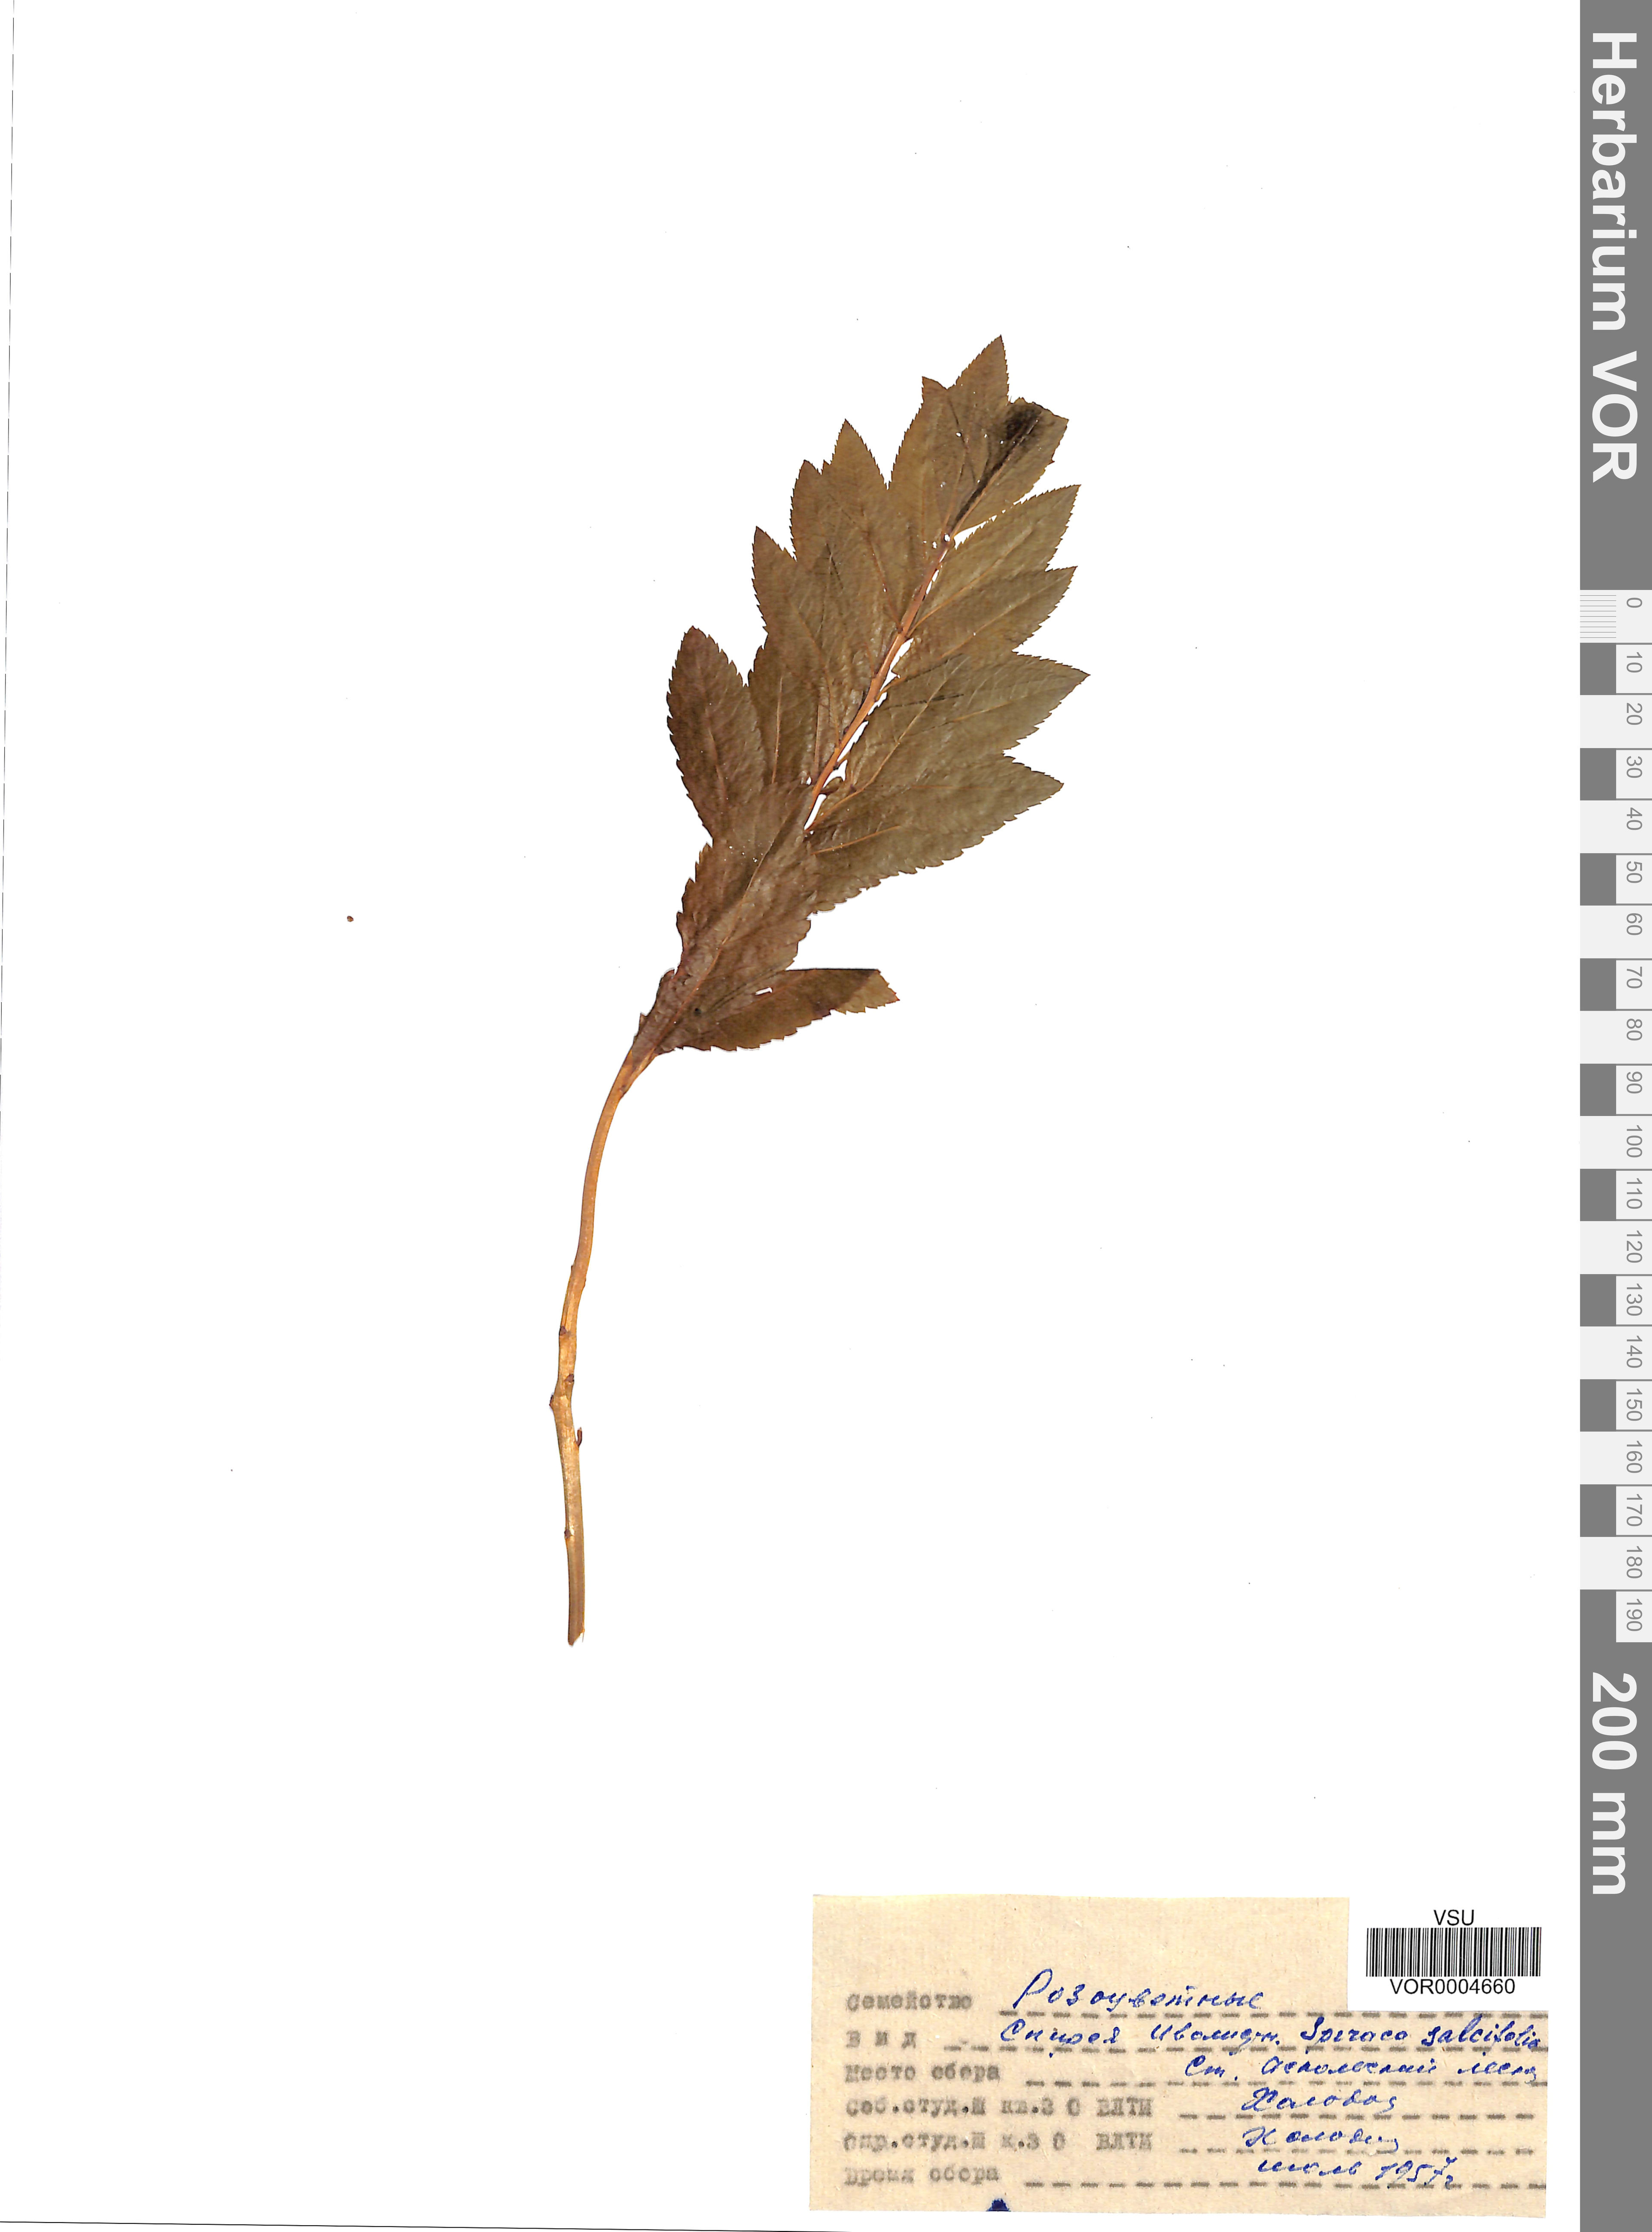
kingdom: Plantae
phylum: Tracheophyta
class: Magnoliopsida
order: Rosales
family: Rosaceae
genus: Spiraea
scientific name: Spiraea salicifolia
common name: Bridewort
